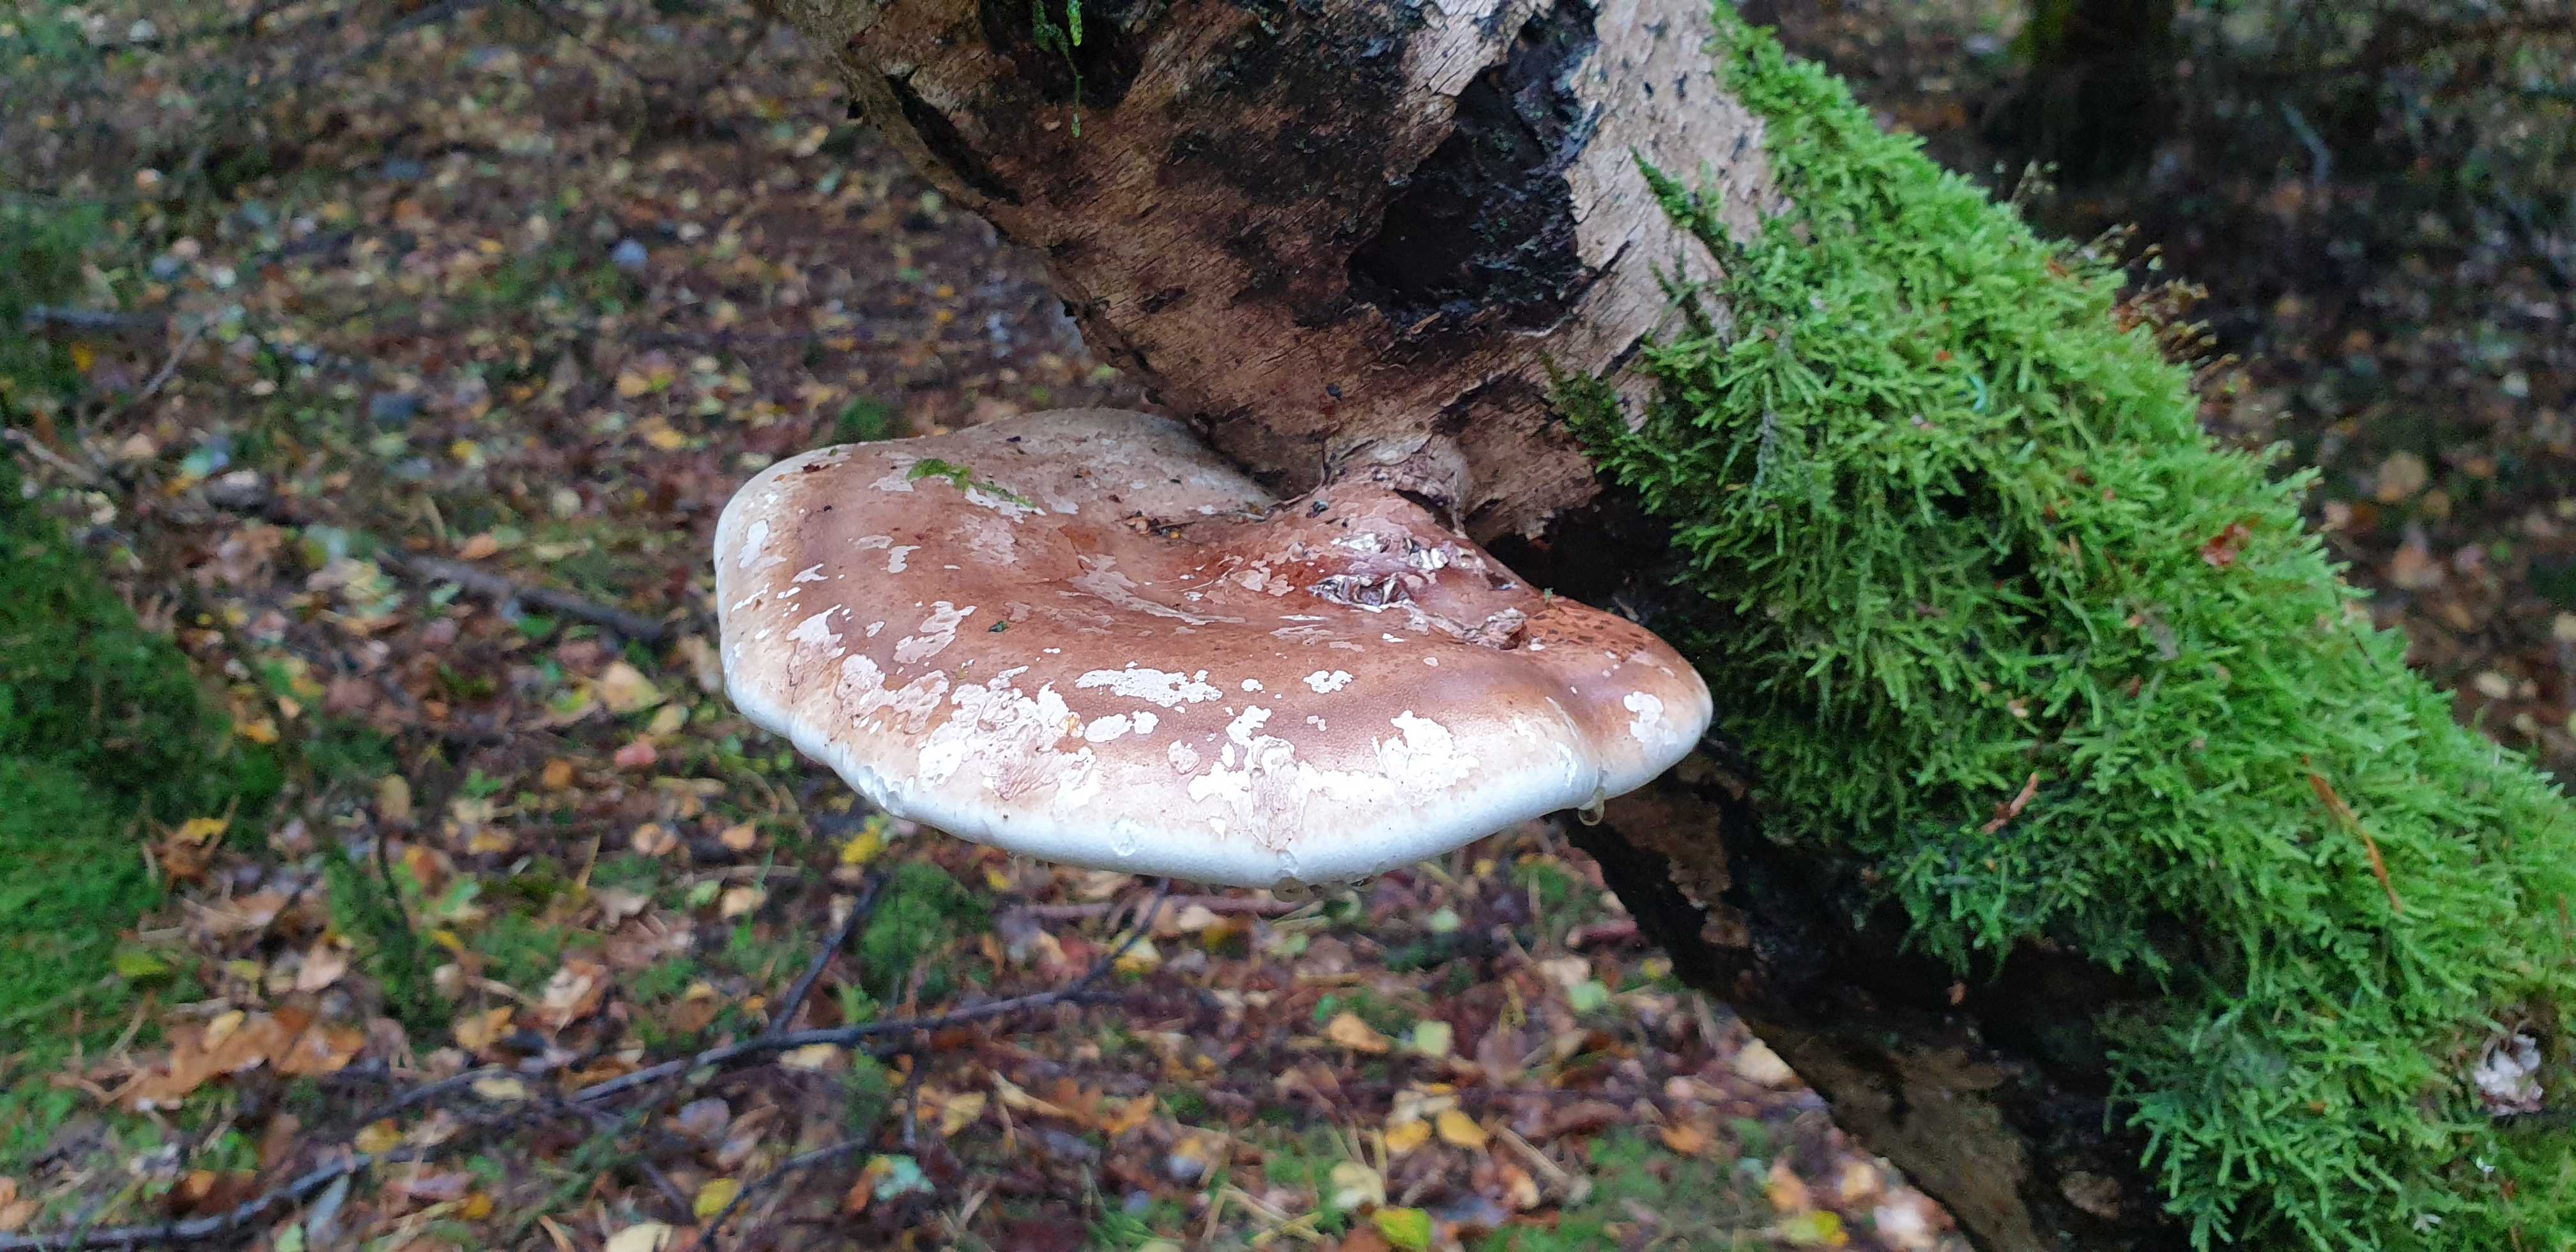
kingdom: Fungi
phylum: Basidiomycota
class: Agaricomycetes
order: Polyporales
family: Fomitopsidaceae
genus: Fomitopsis
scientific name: Fomitopsis betulina
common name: birkeporesvamp
